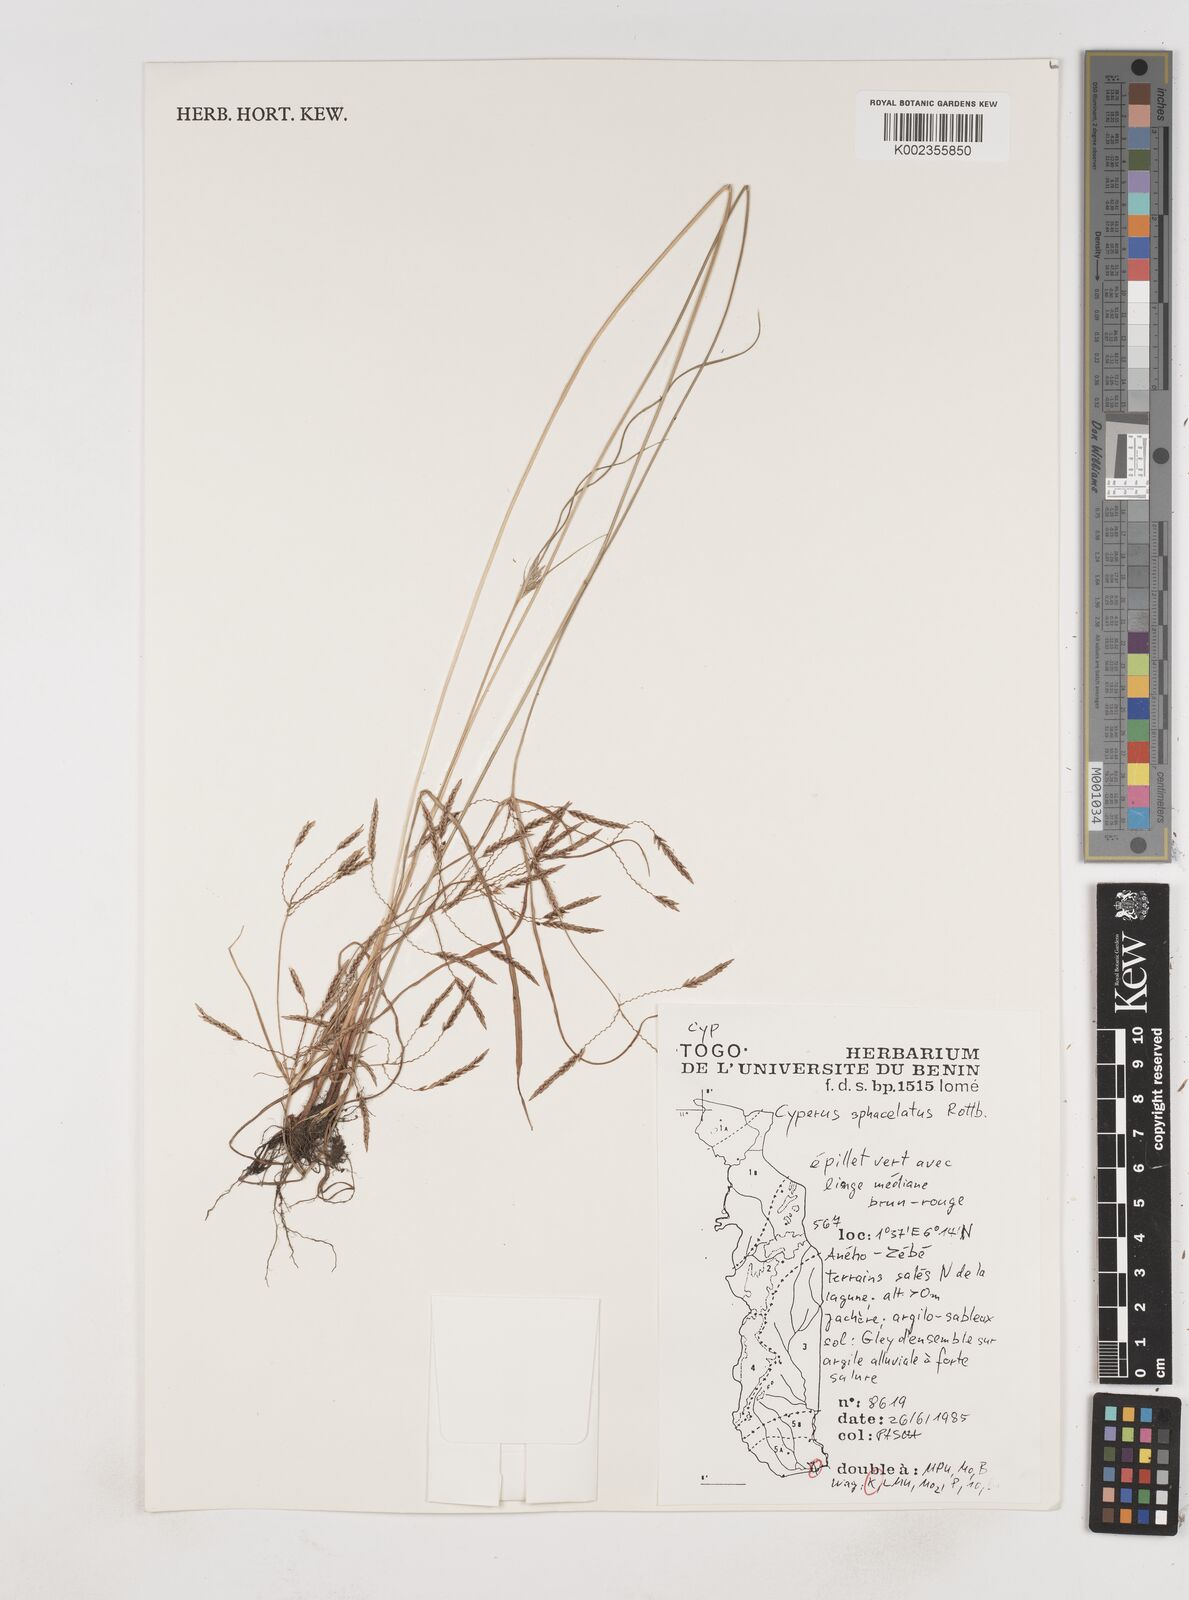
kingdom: Plantae
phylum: Tracheophyta
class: Liliopsida
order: Poales
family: Cyperaceae
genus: Cyperus
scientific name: Cyperus sphacelatus
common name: Roadside flatsedge
